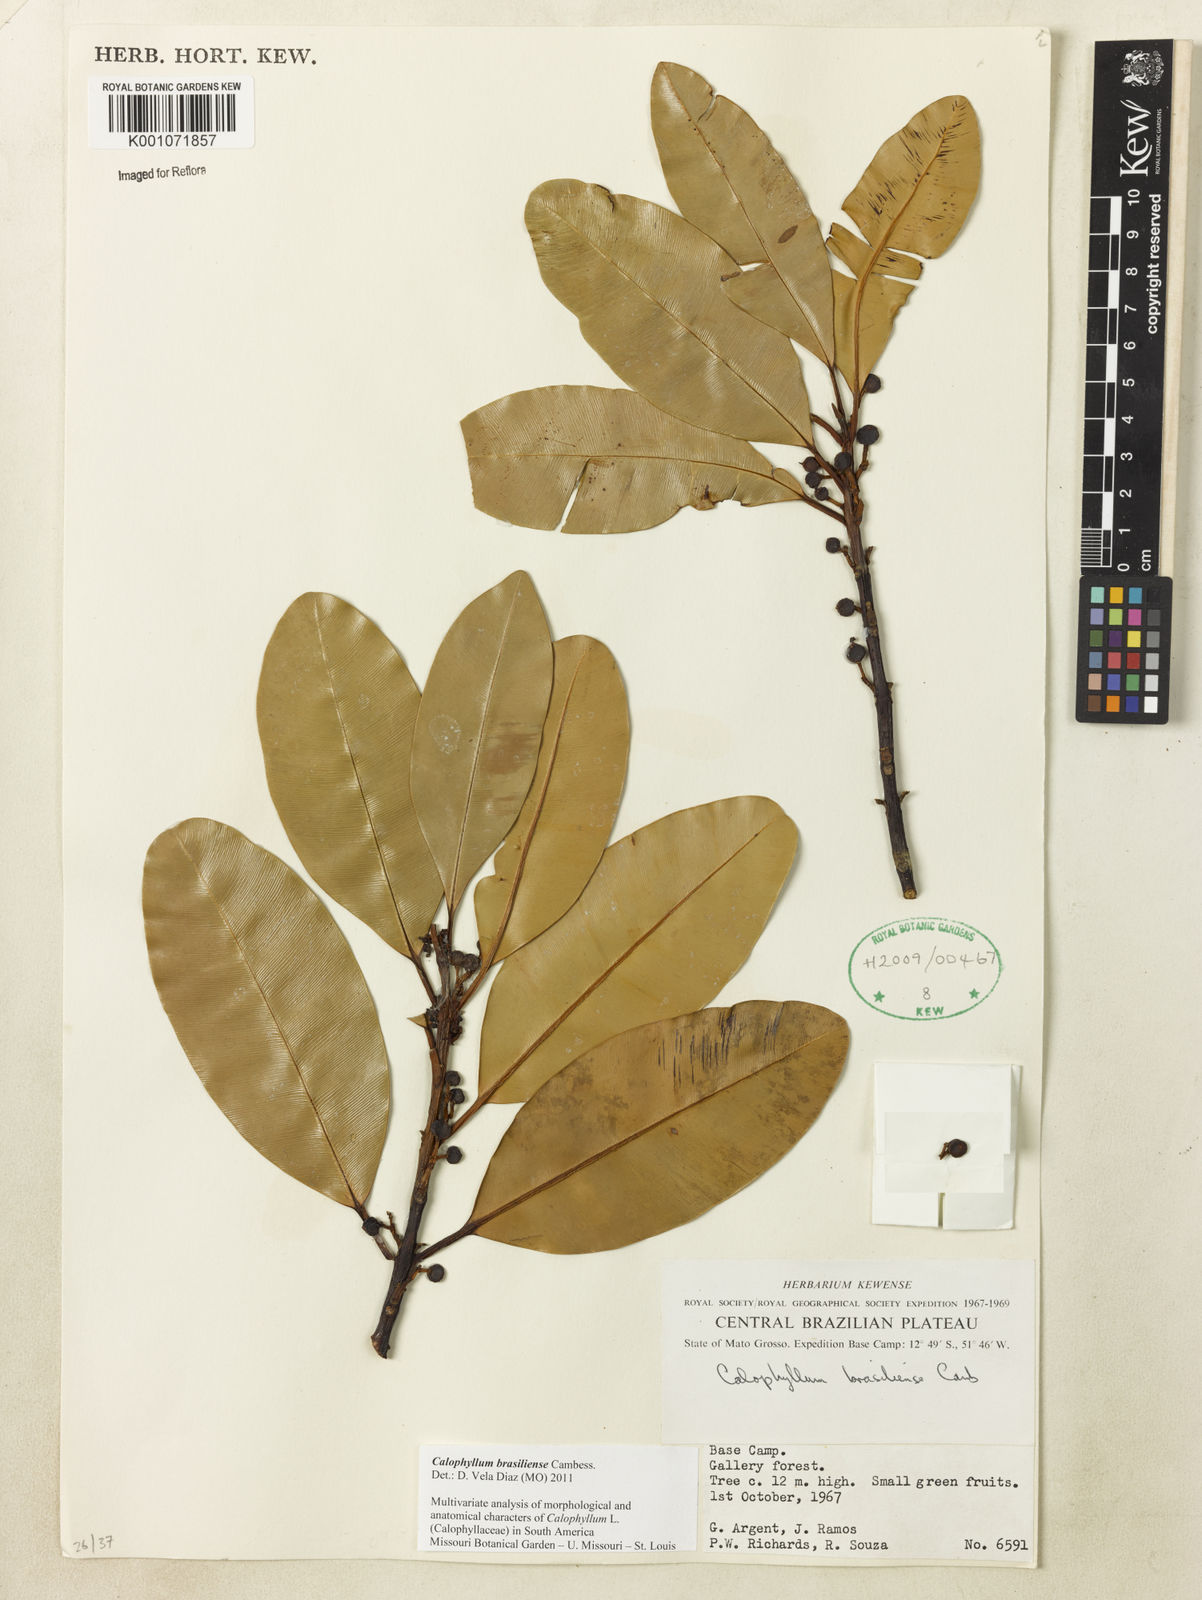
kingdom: Plantae
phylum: Tracheophyta
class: Magnoliopsida
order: Malpighiales
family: Calophyllaceae
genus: Calophyllum
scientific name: Calophyllum brasiliense
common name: Santa maria
